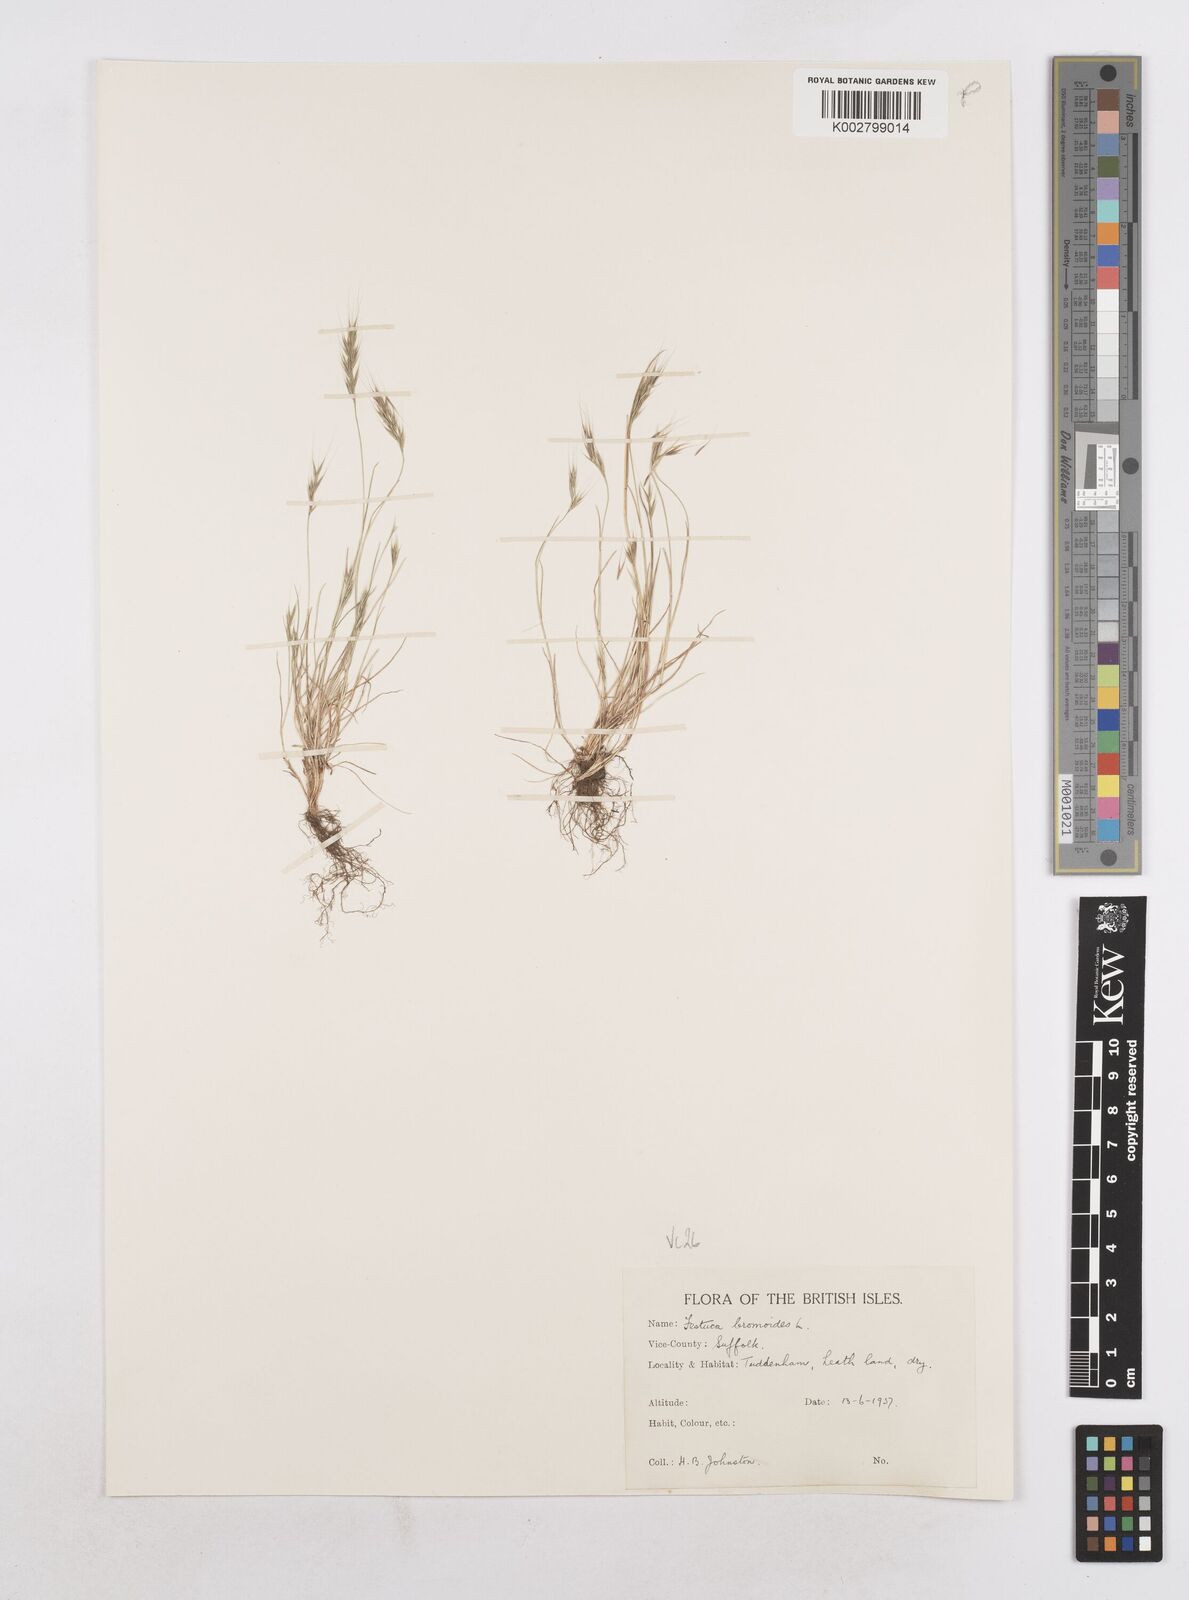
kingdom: Plantae
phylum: Tracheophyta
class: Liliopsida
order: Poales
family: Poaceae
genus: Festuca
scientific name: Festuca bromoides
